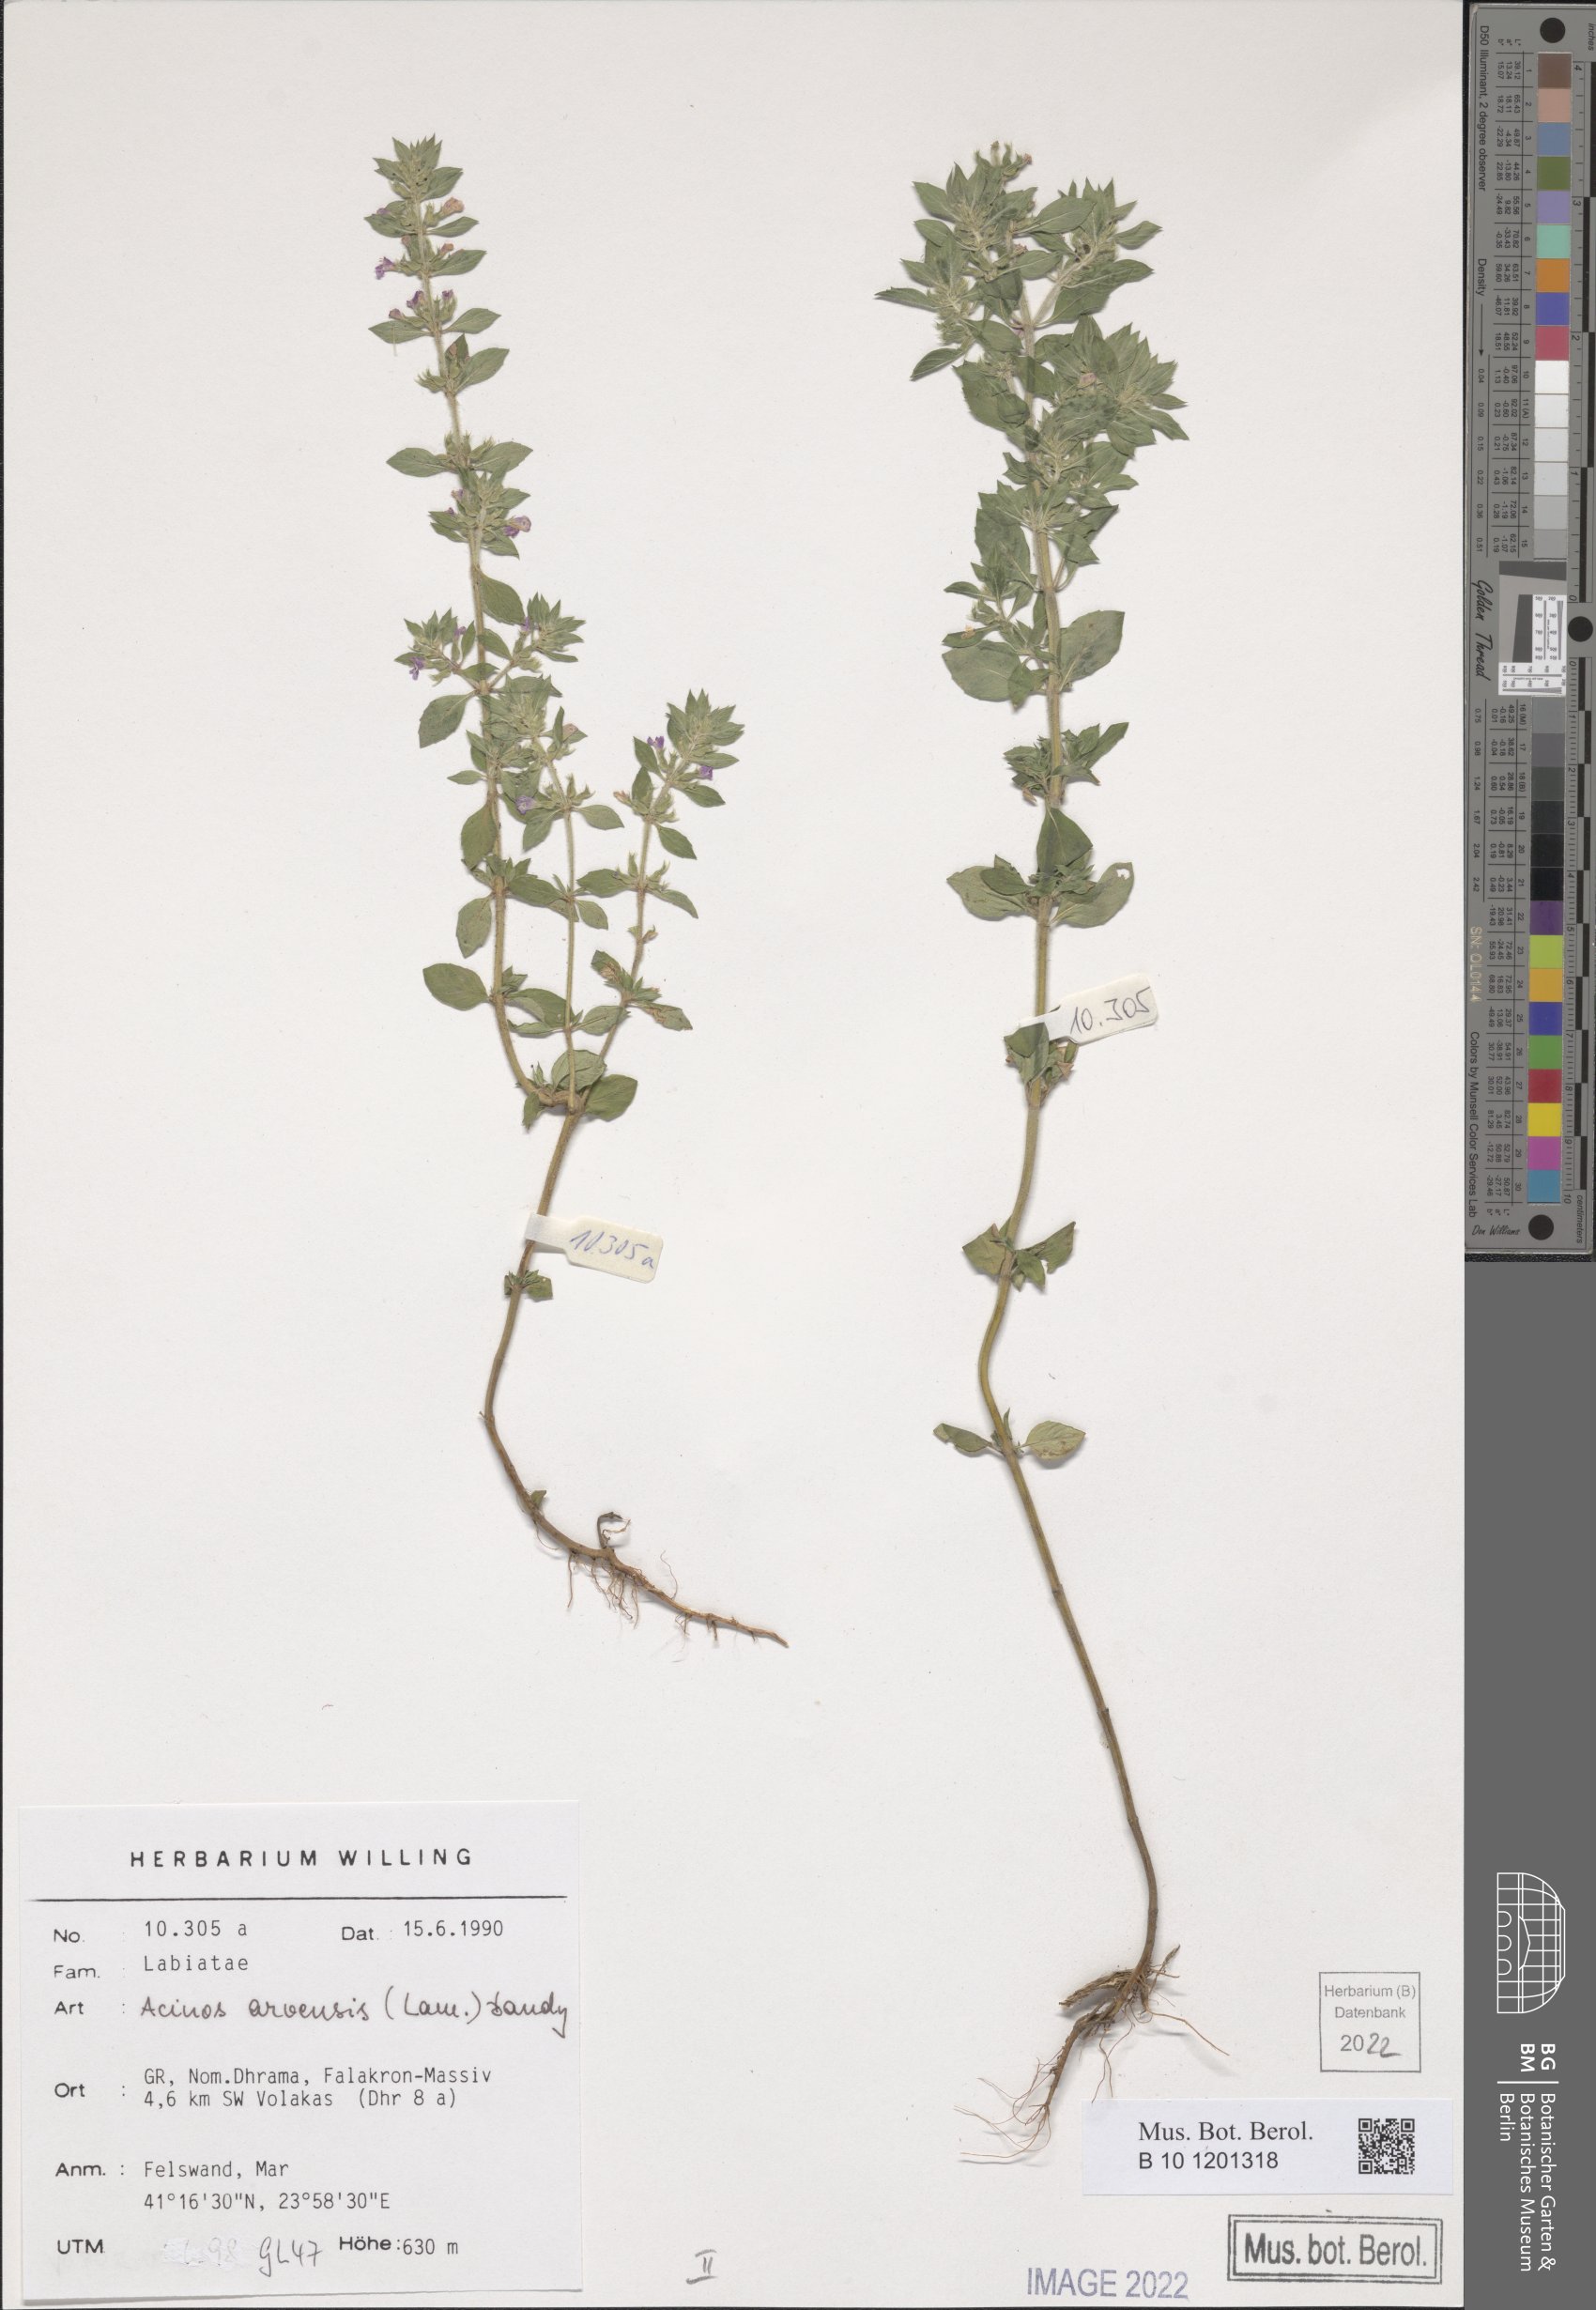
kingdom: Plantae
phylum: Tracheophyta
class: Magnoliopsida
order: Lamiales
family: Lamiaceae
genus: Clinopodium
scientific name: Clinopodium acinos
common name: Basil thyme
